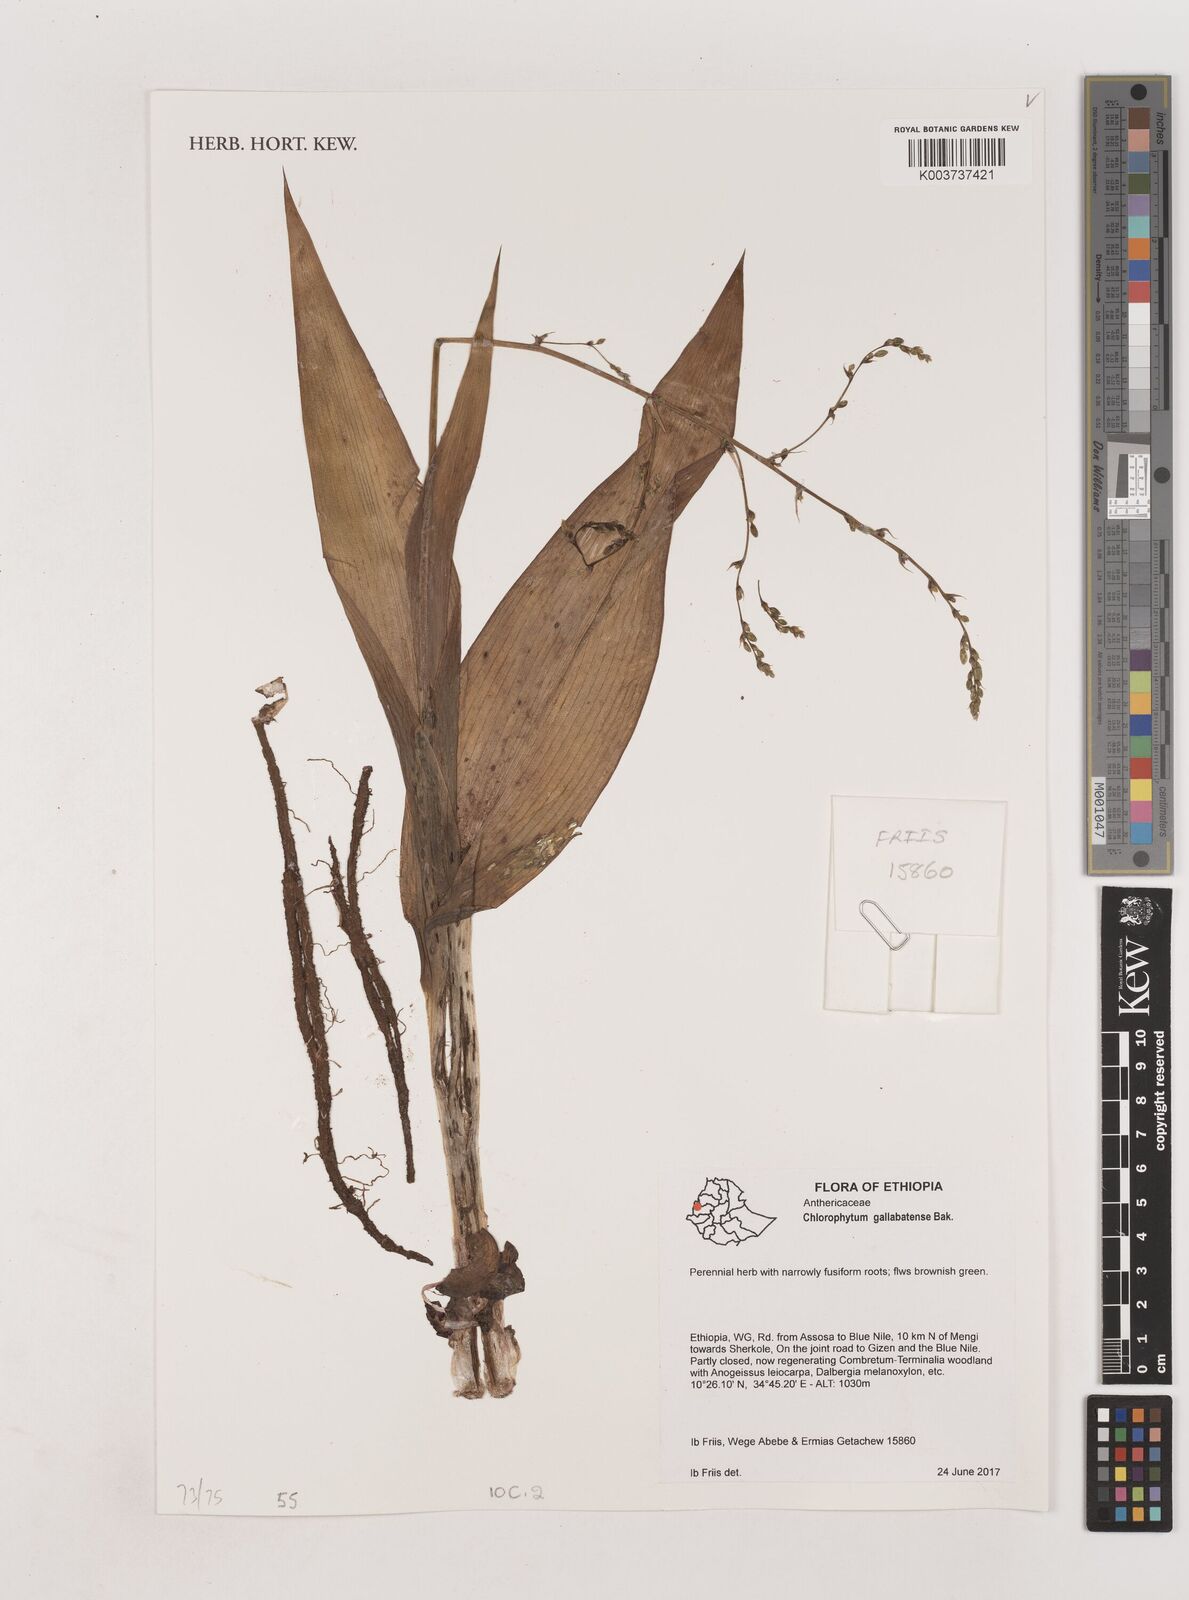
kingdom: Plantae
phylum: Tracheophyta
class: Liliopsida
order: Asparagales
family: Asparagaceae
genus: Chlorophytum
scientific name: Chlorophytum gallabatense
